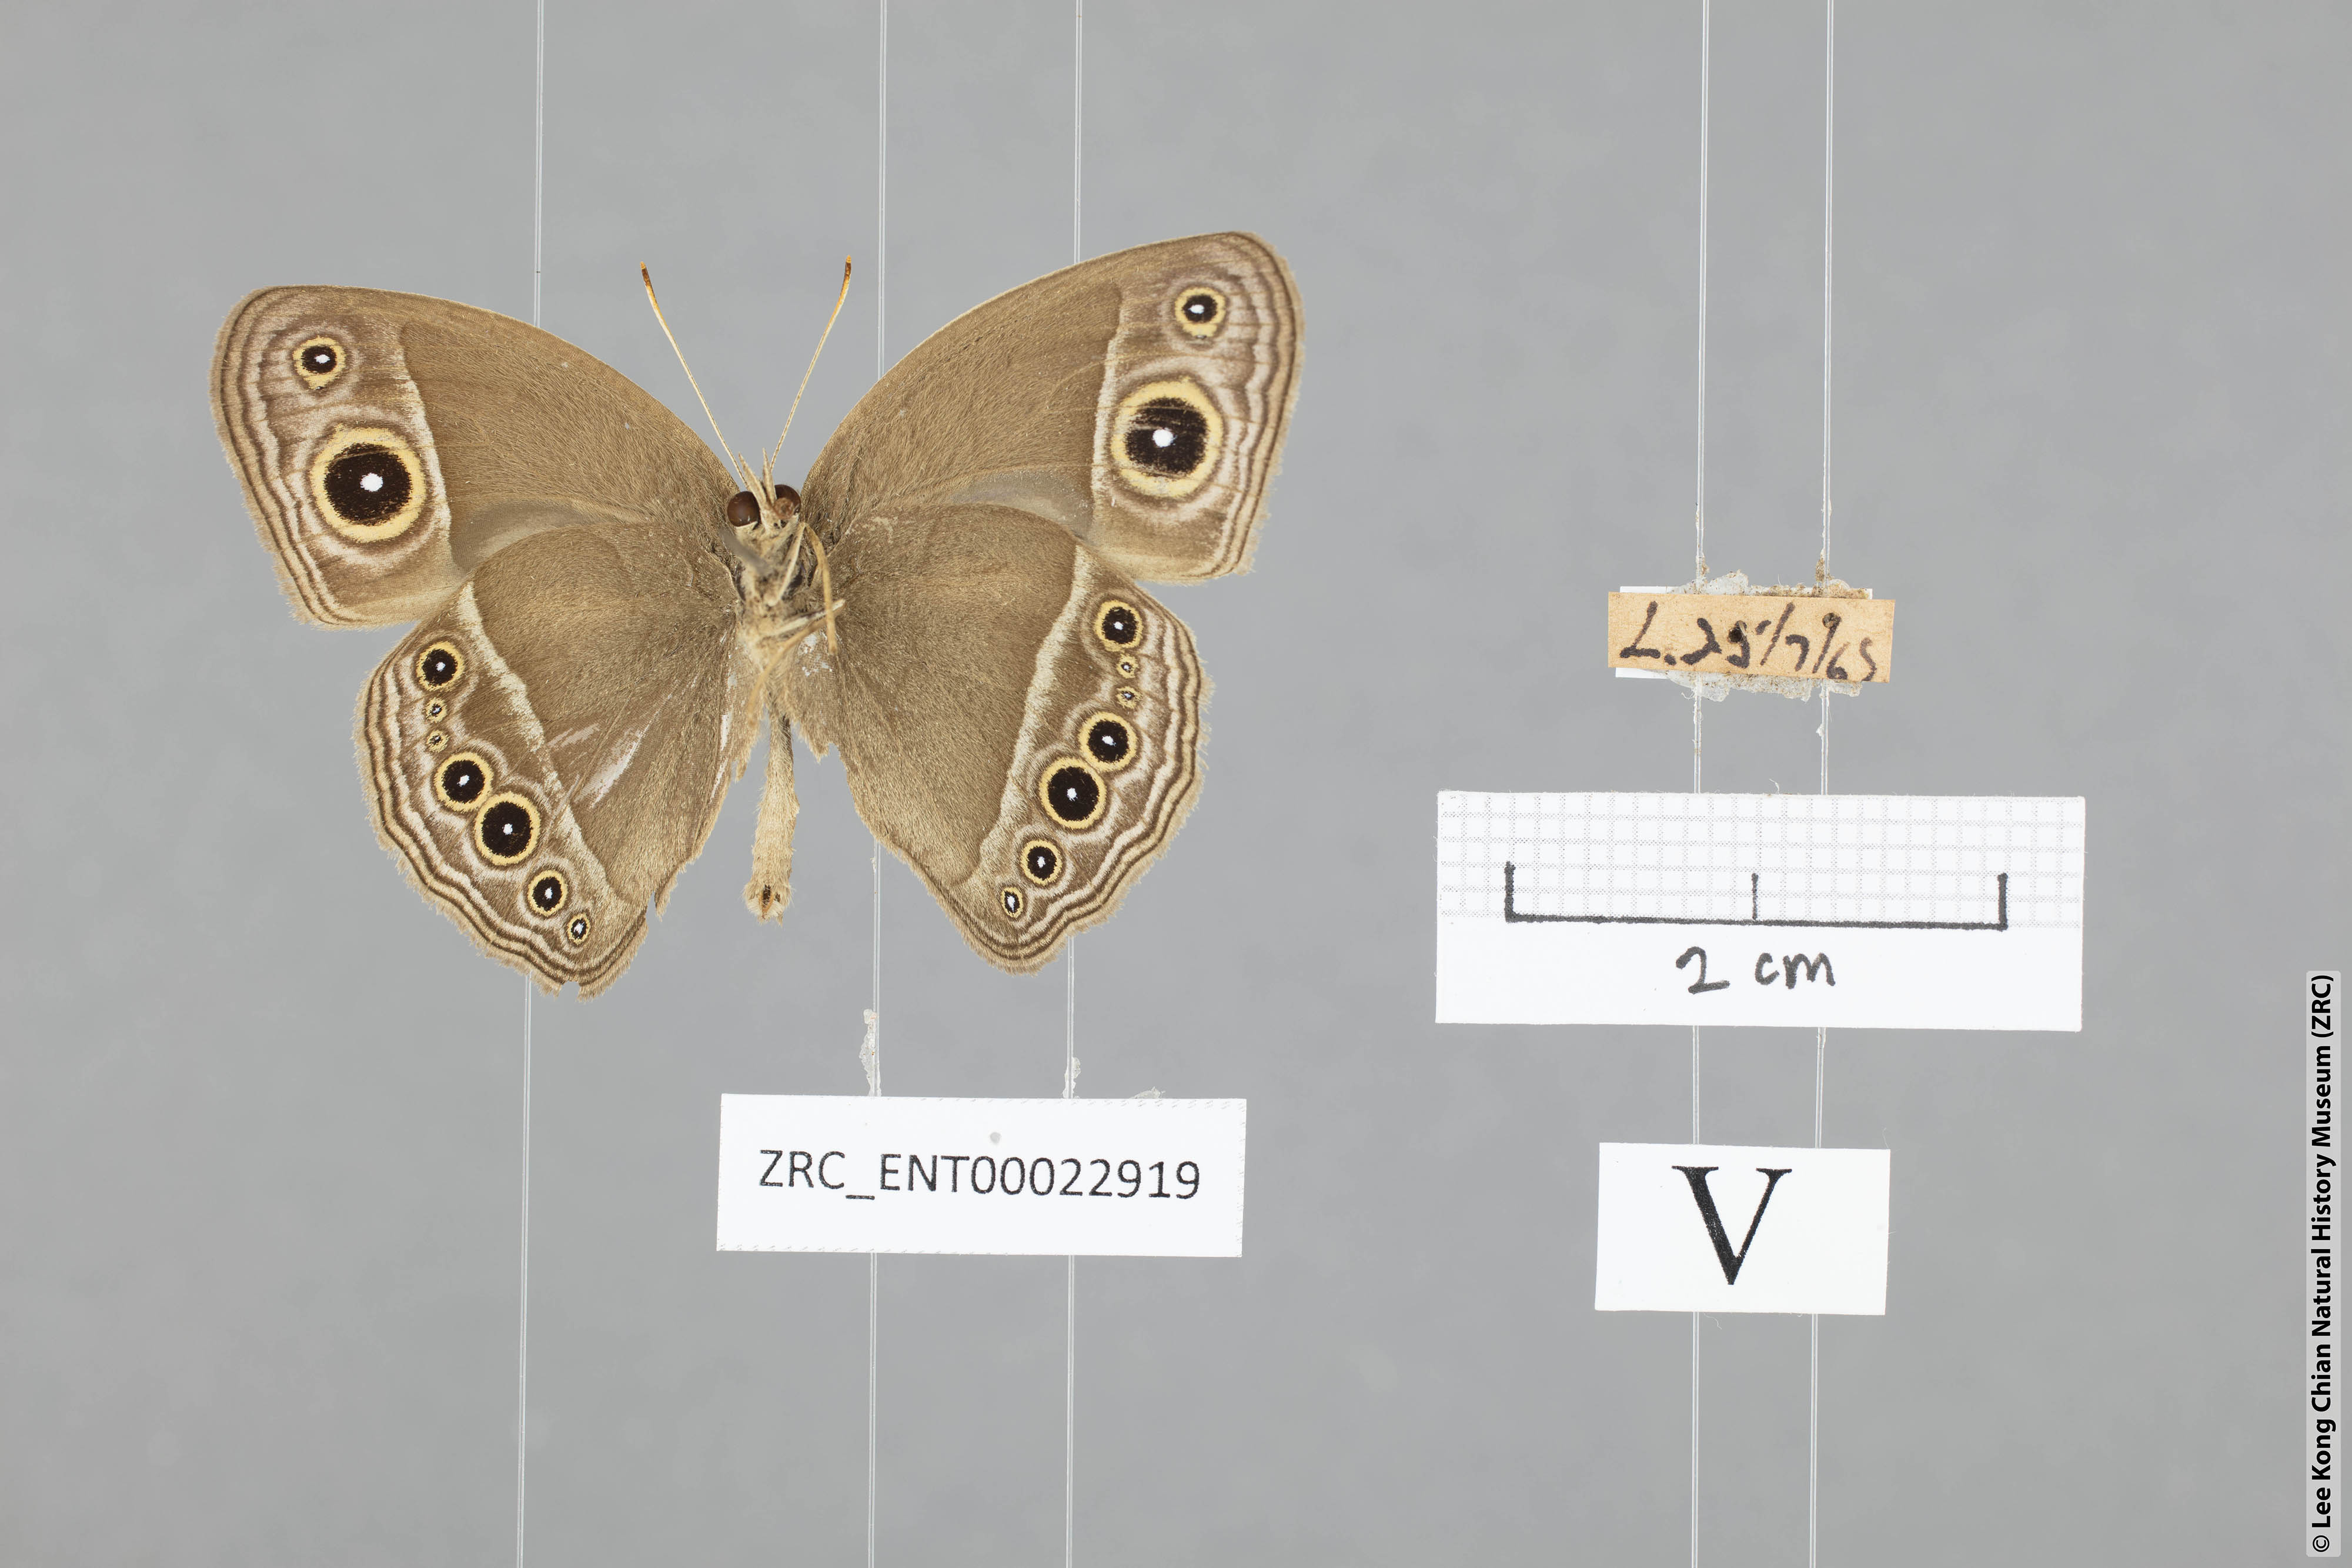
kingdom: Animalia
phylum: Arthropoda
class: Insecta
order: Lepidoptera
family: Nymphalidae
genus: Mycalesis
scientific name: Mycalesis horsfieldii
